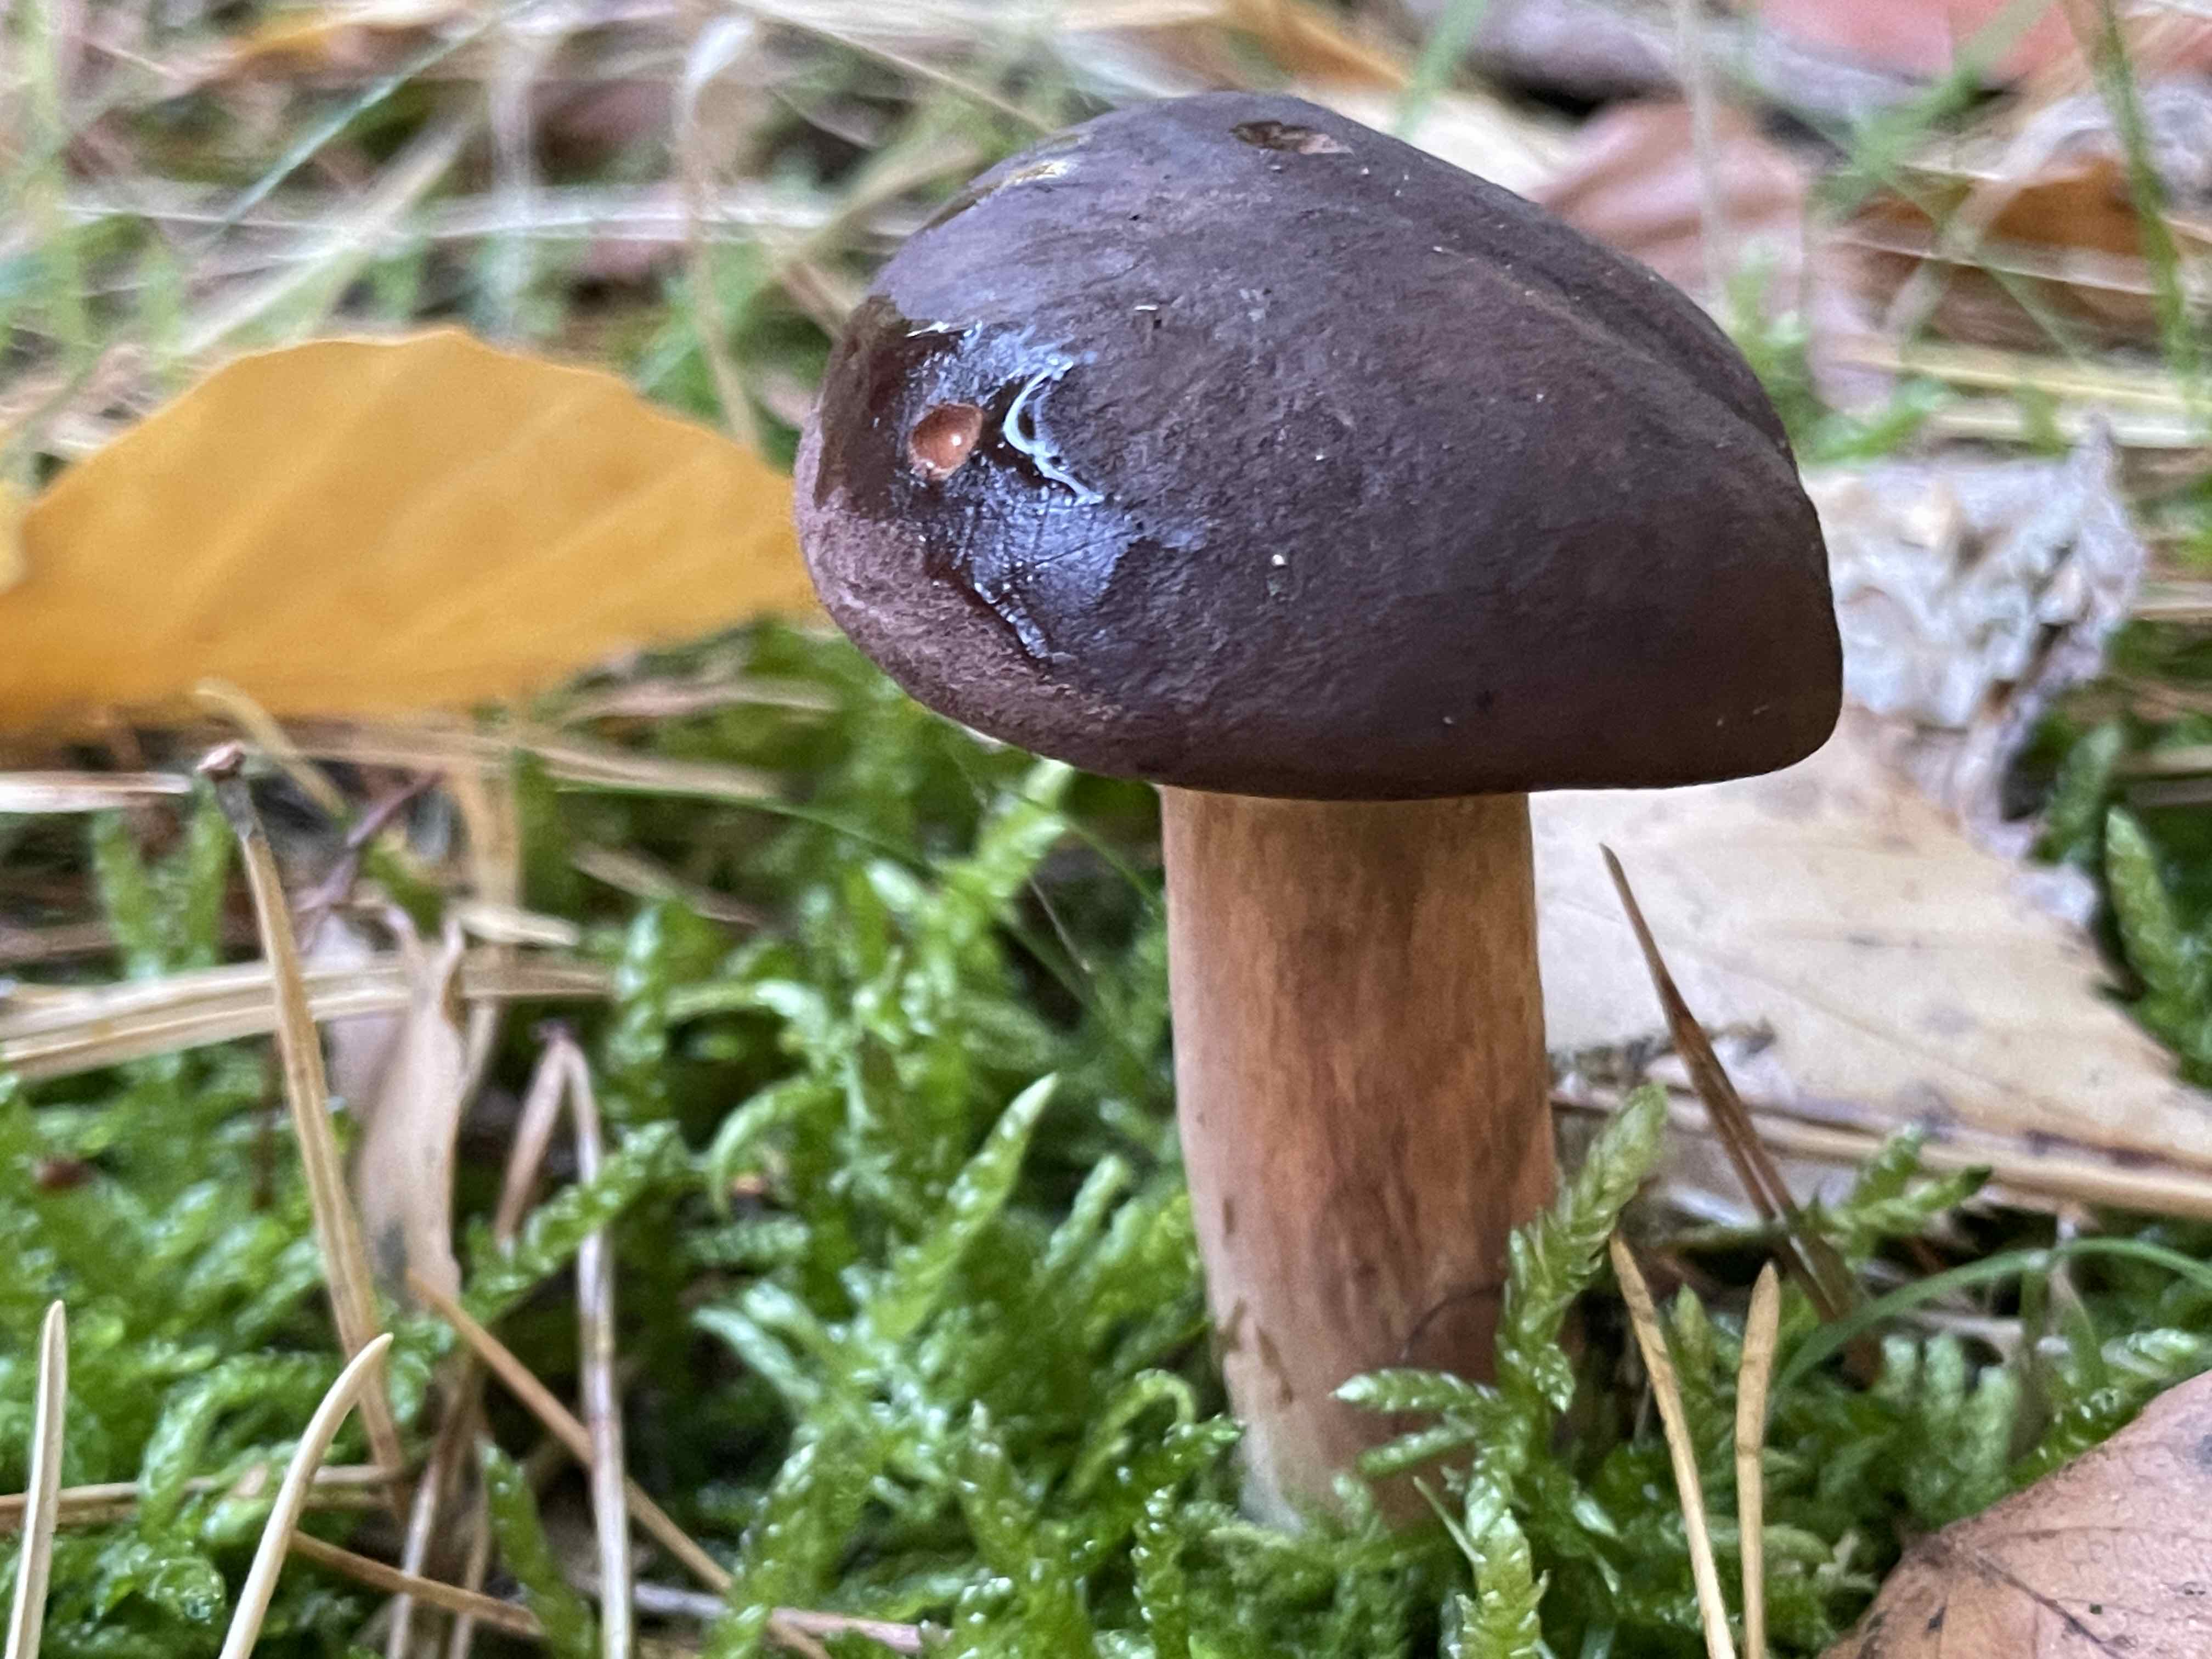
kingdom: Fungi
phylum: Basidiomycota
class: Agaricomycetes
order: Boletales
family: Boletaceae
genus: Imleria
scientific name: Imleria badia
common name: brunstokket rørhat
